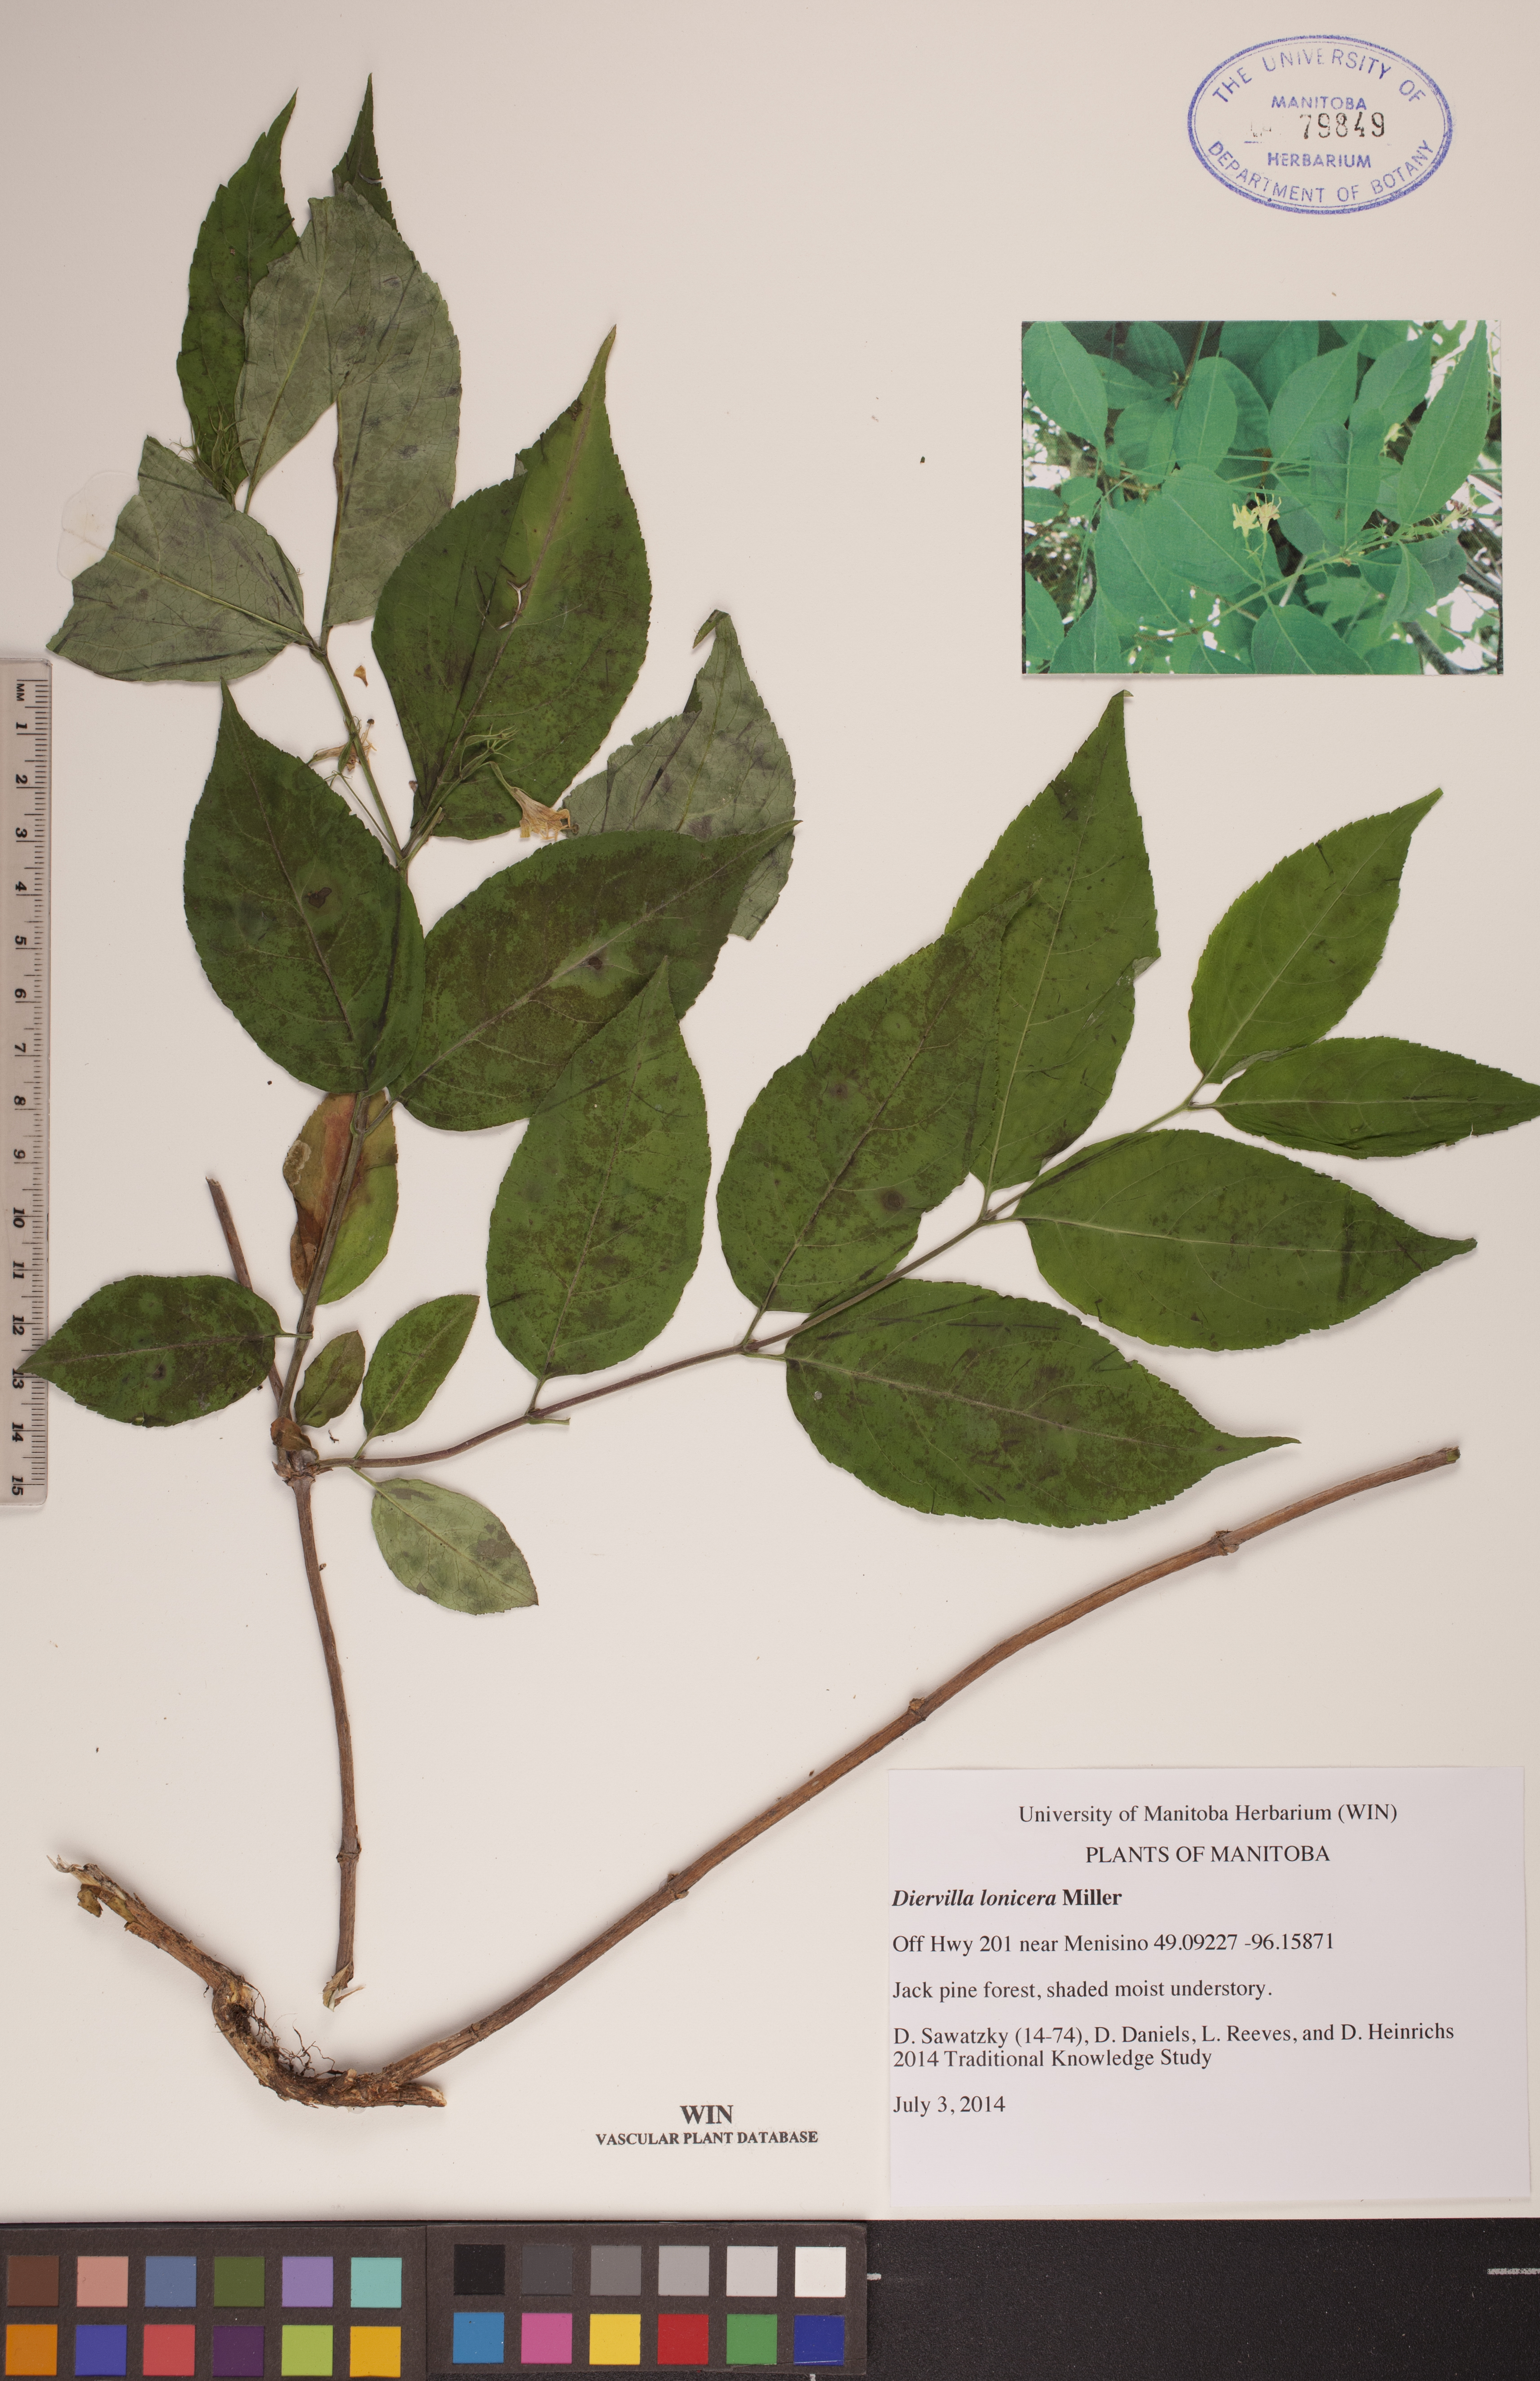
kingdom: Plantae
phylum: Tracheophyta
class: Magnoliopsida
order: Dipsacales
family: Caprifoliaceae
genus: Diervilla
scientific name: Diervilla lonicera
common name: Bush-honeysuckle
